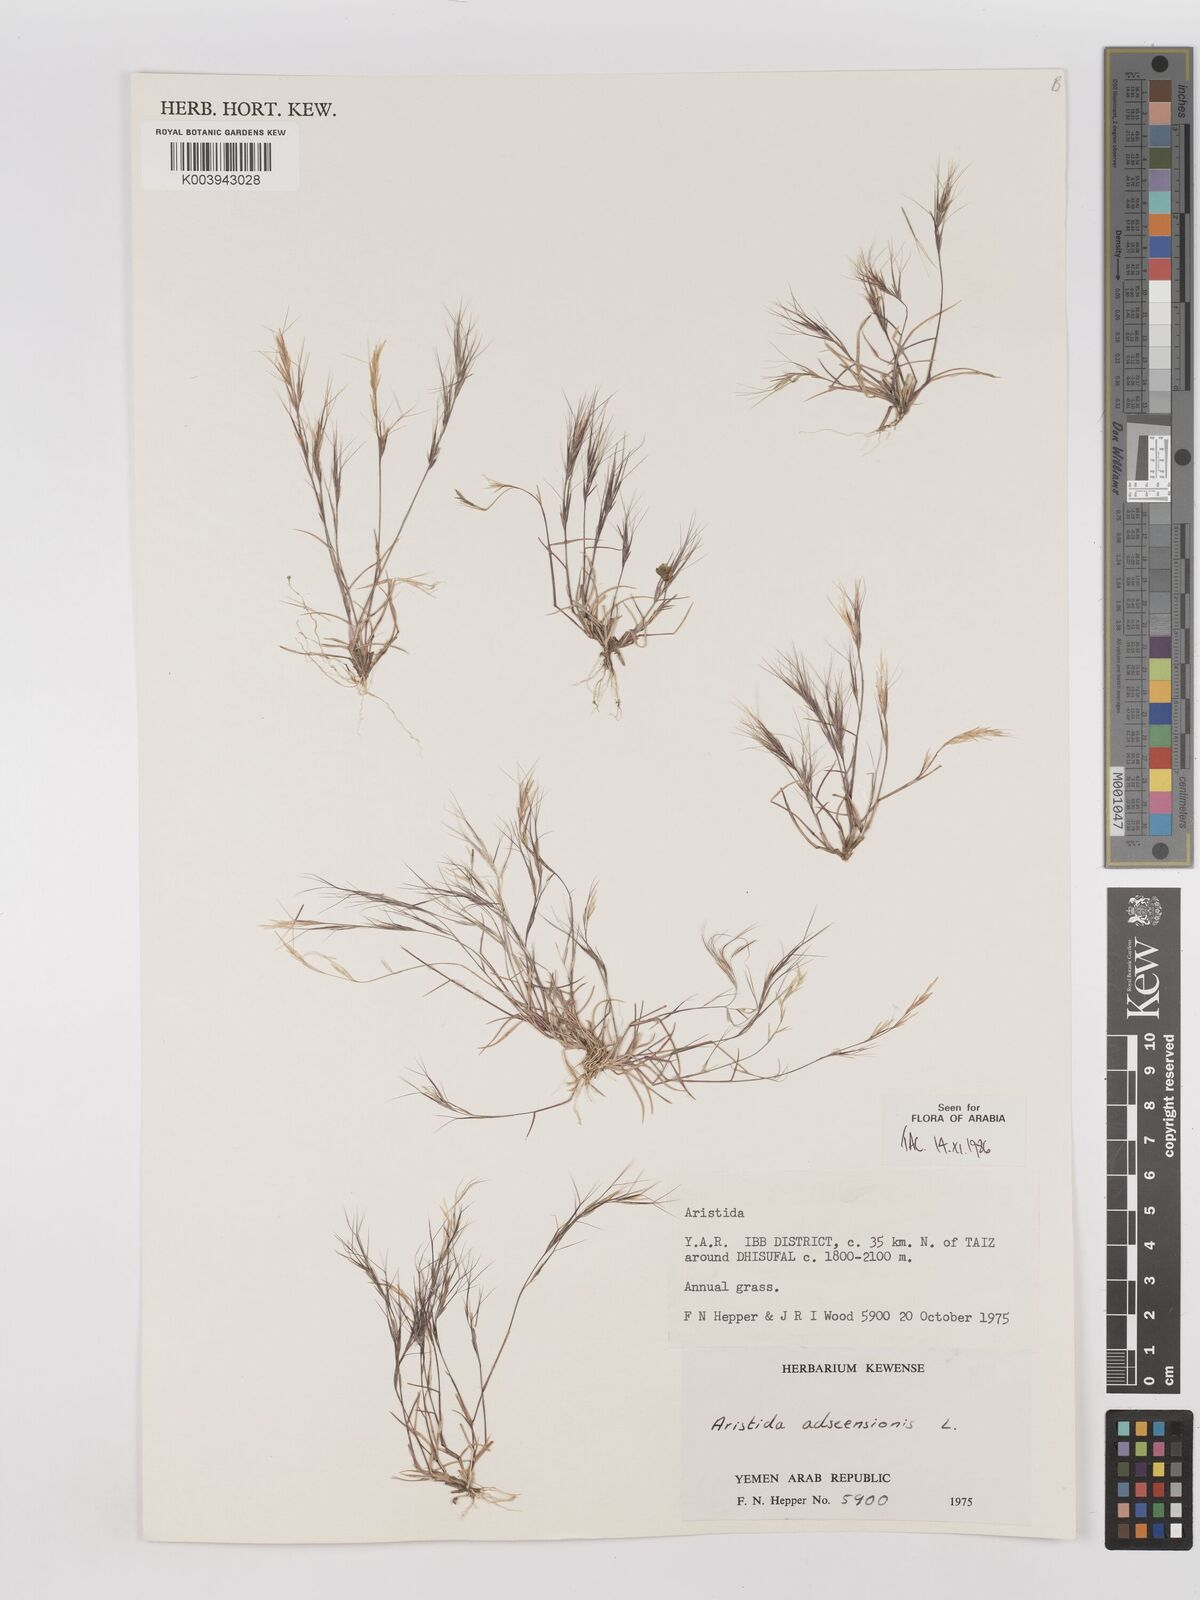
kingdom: Plantae
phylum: Tracheophyta
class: Liliopsida
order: Poales
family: Poaceae
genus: Aristida
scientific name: Aristida adscensionis
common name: Sixweeks threeawn
